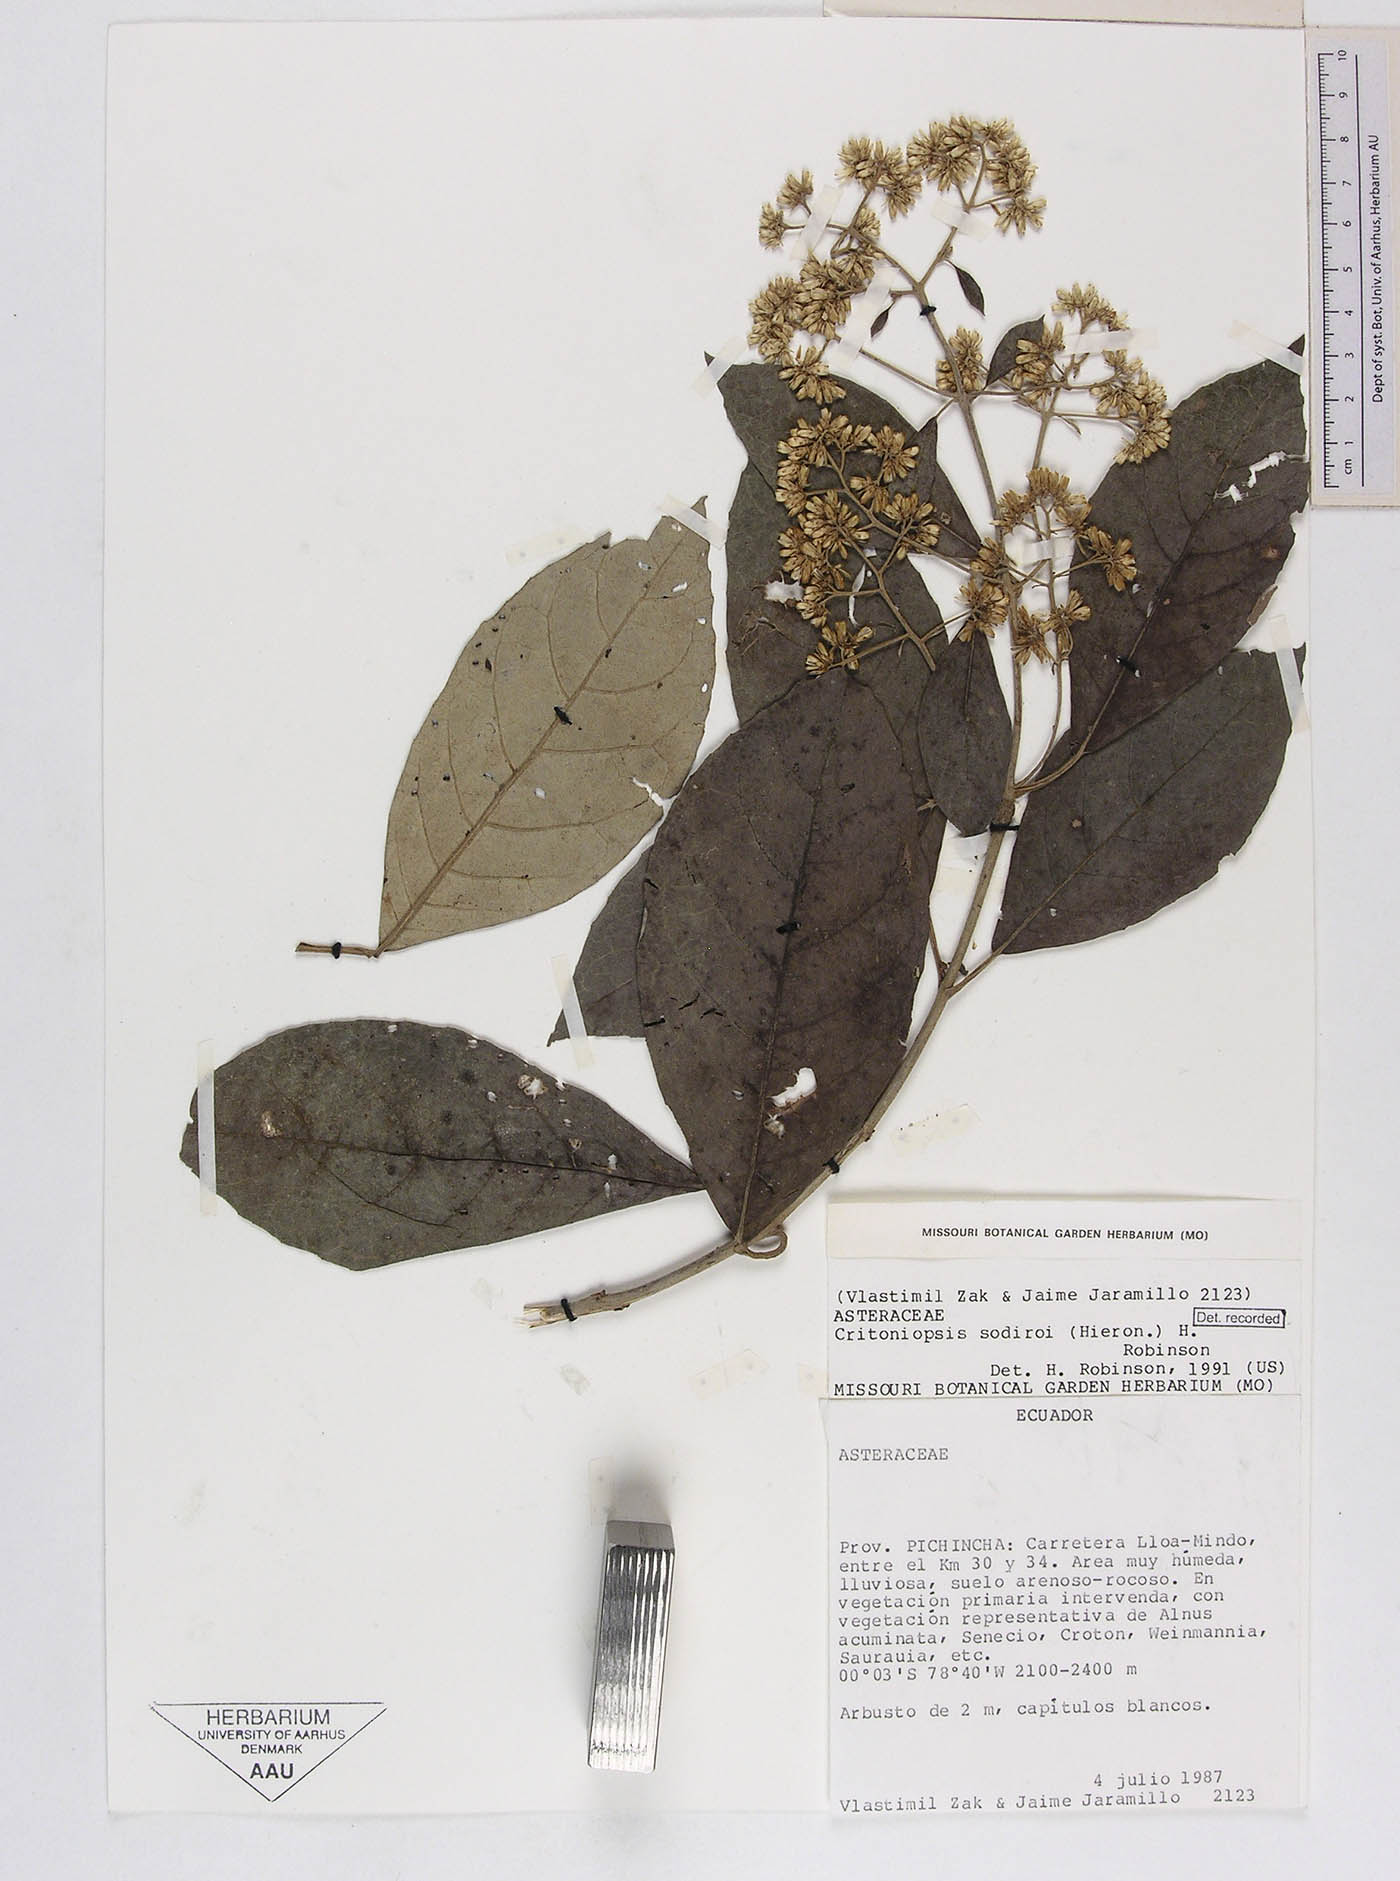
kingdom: Plantae
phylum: Tracheophyta
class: Magnoliopsida
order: Asterales
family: Asteraceae
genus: Critoniopsis
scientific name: Critoniopsis sodiroi
